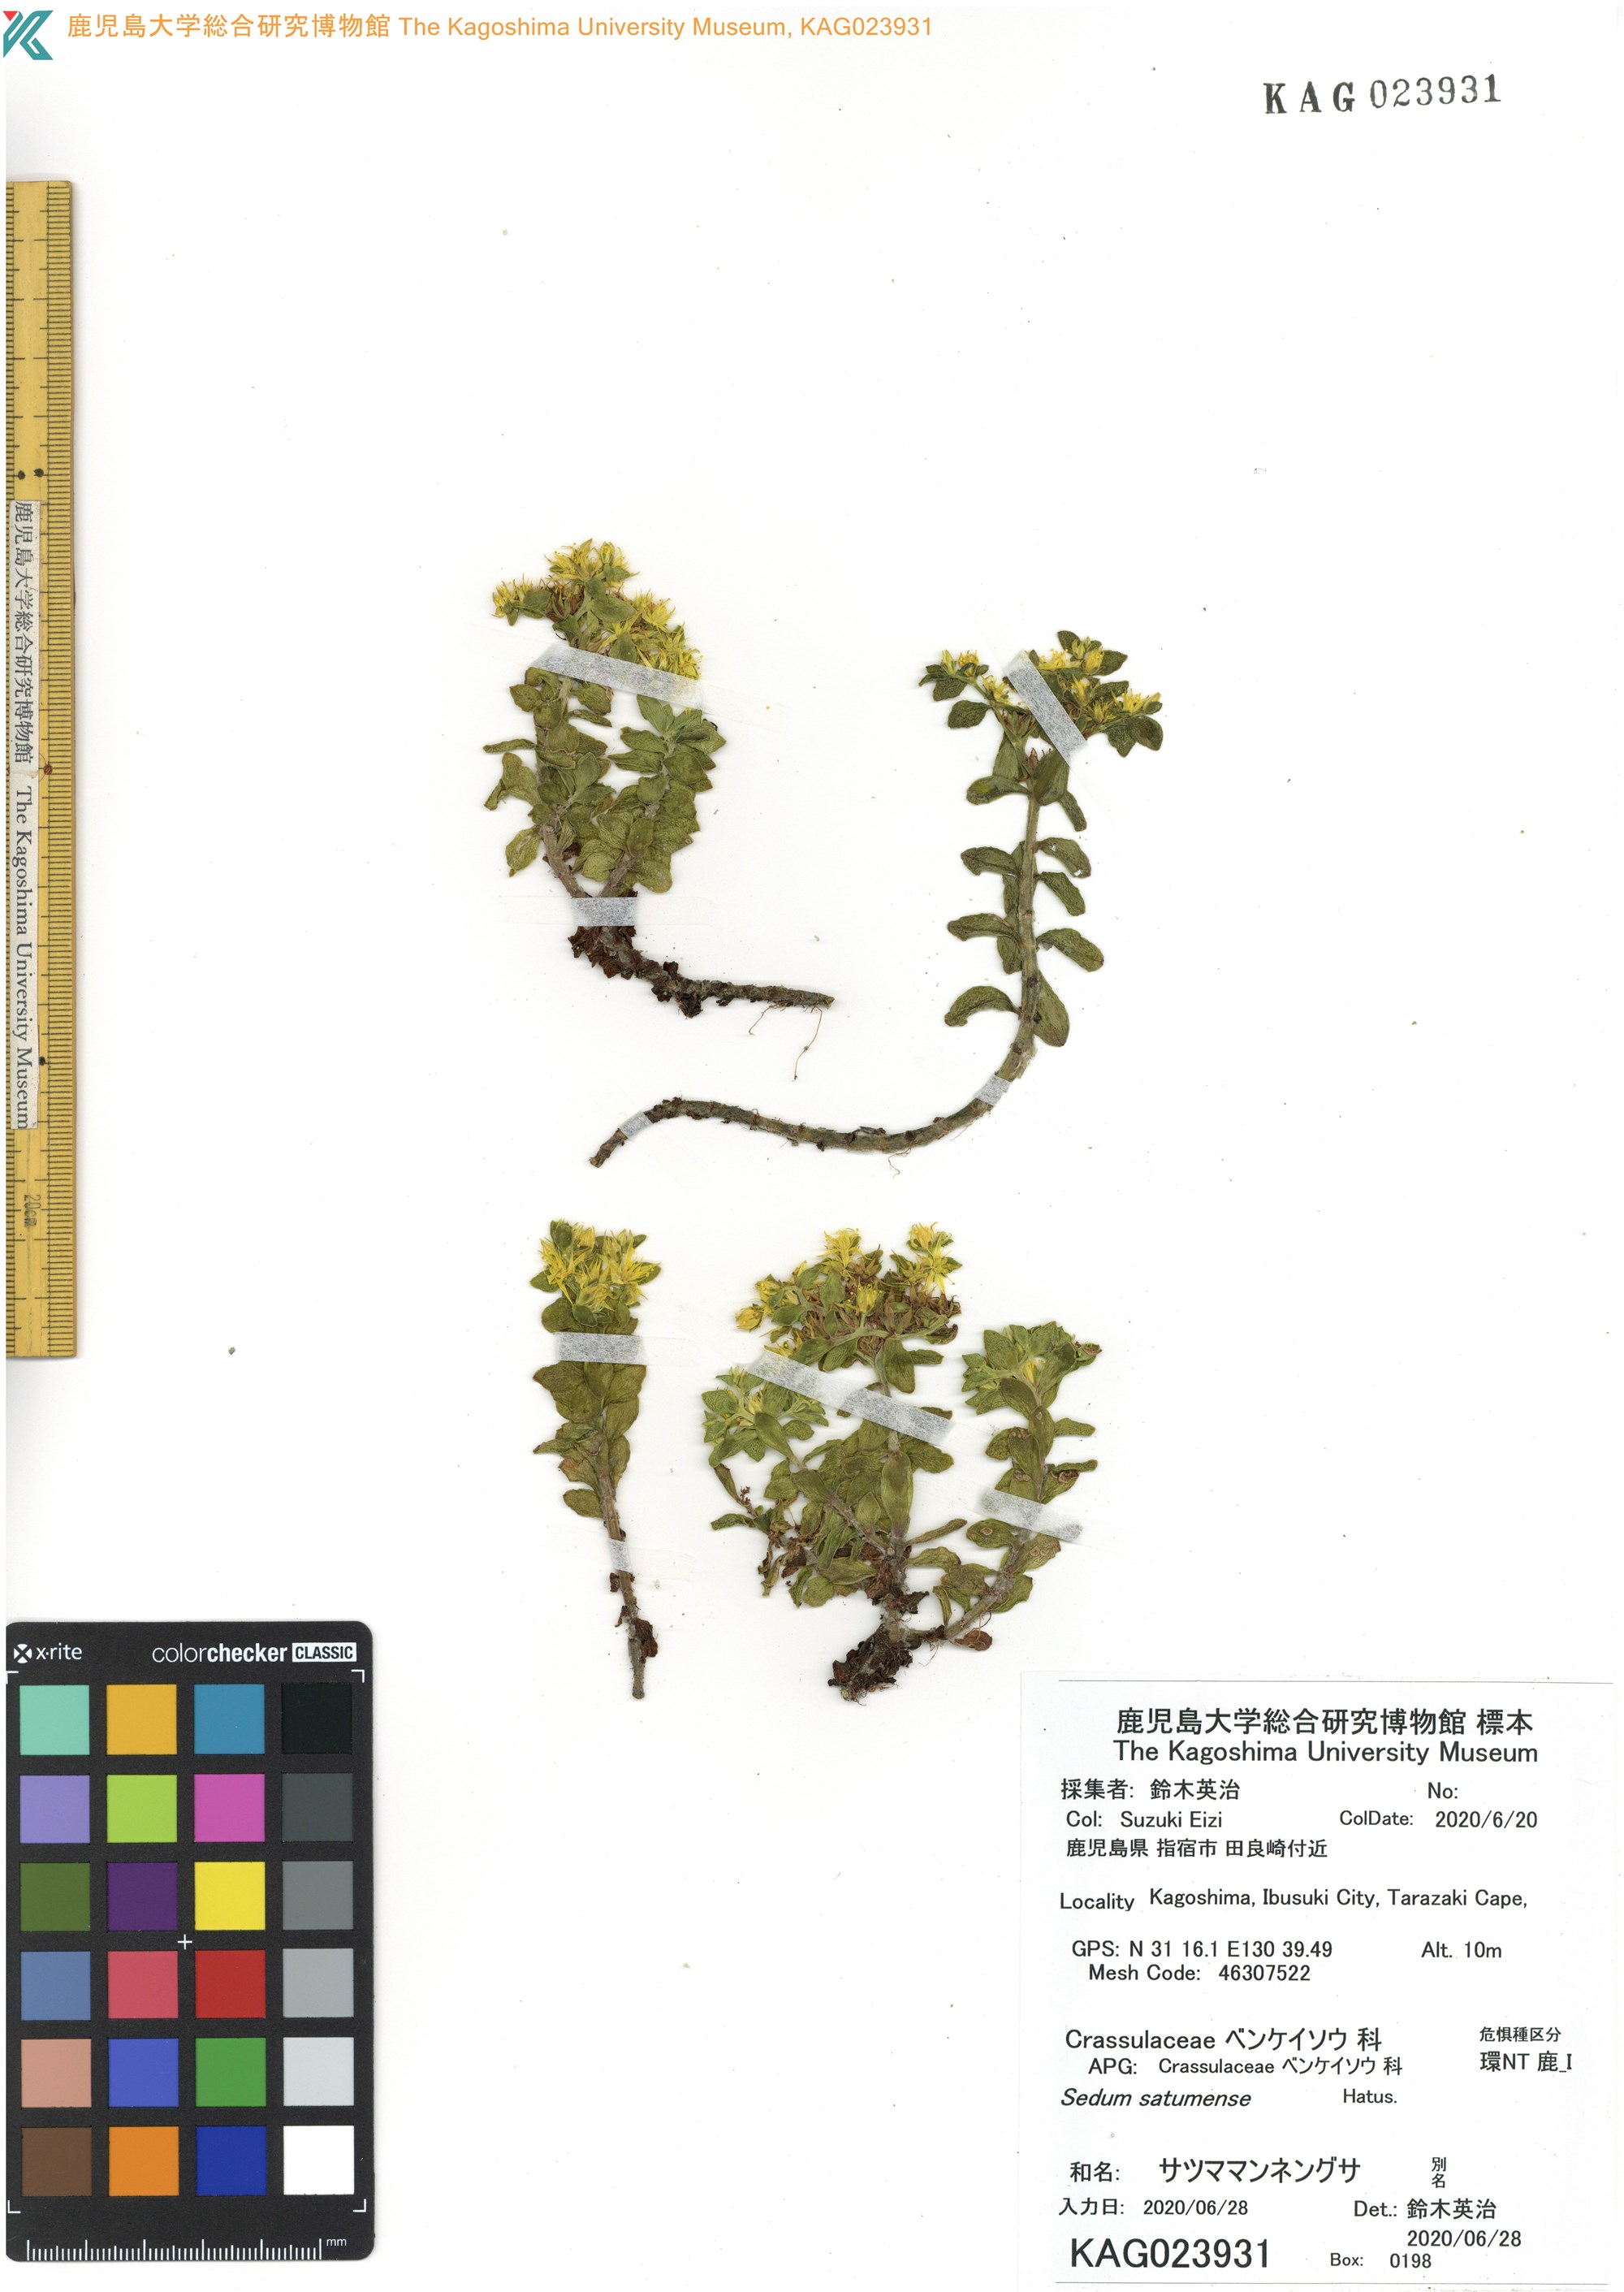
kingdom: Plantae
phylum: Tracheophyta
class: Magnoliopsida
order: Saxifragales
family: Crassulaceae
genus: Sedum
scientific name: Sedum satumense
